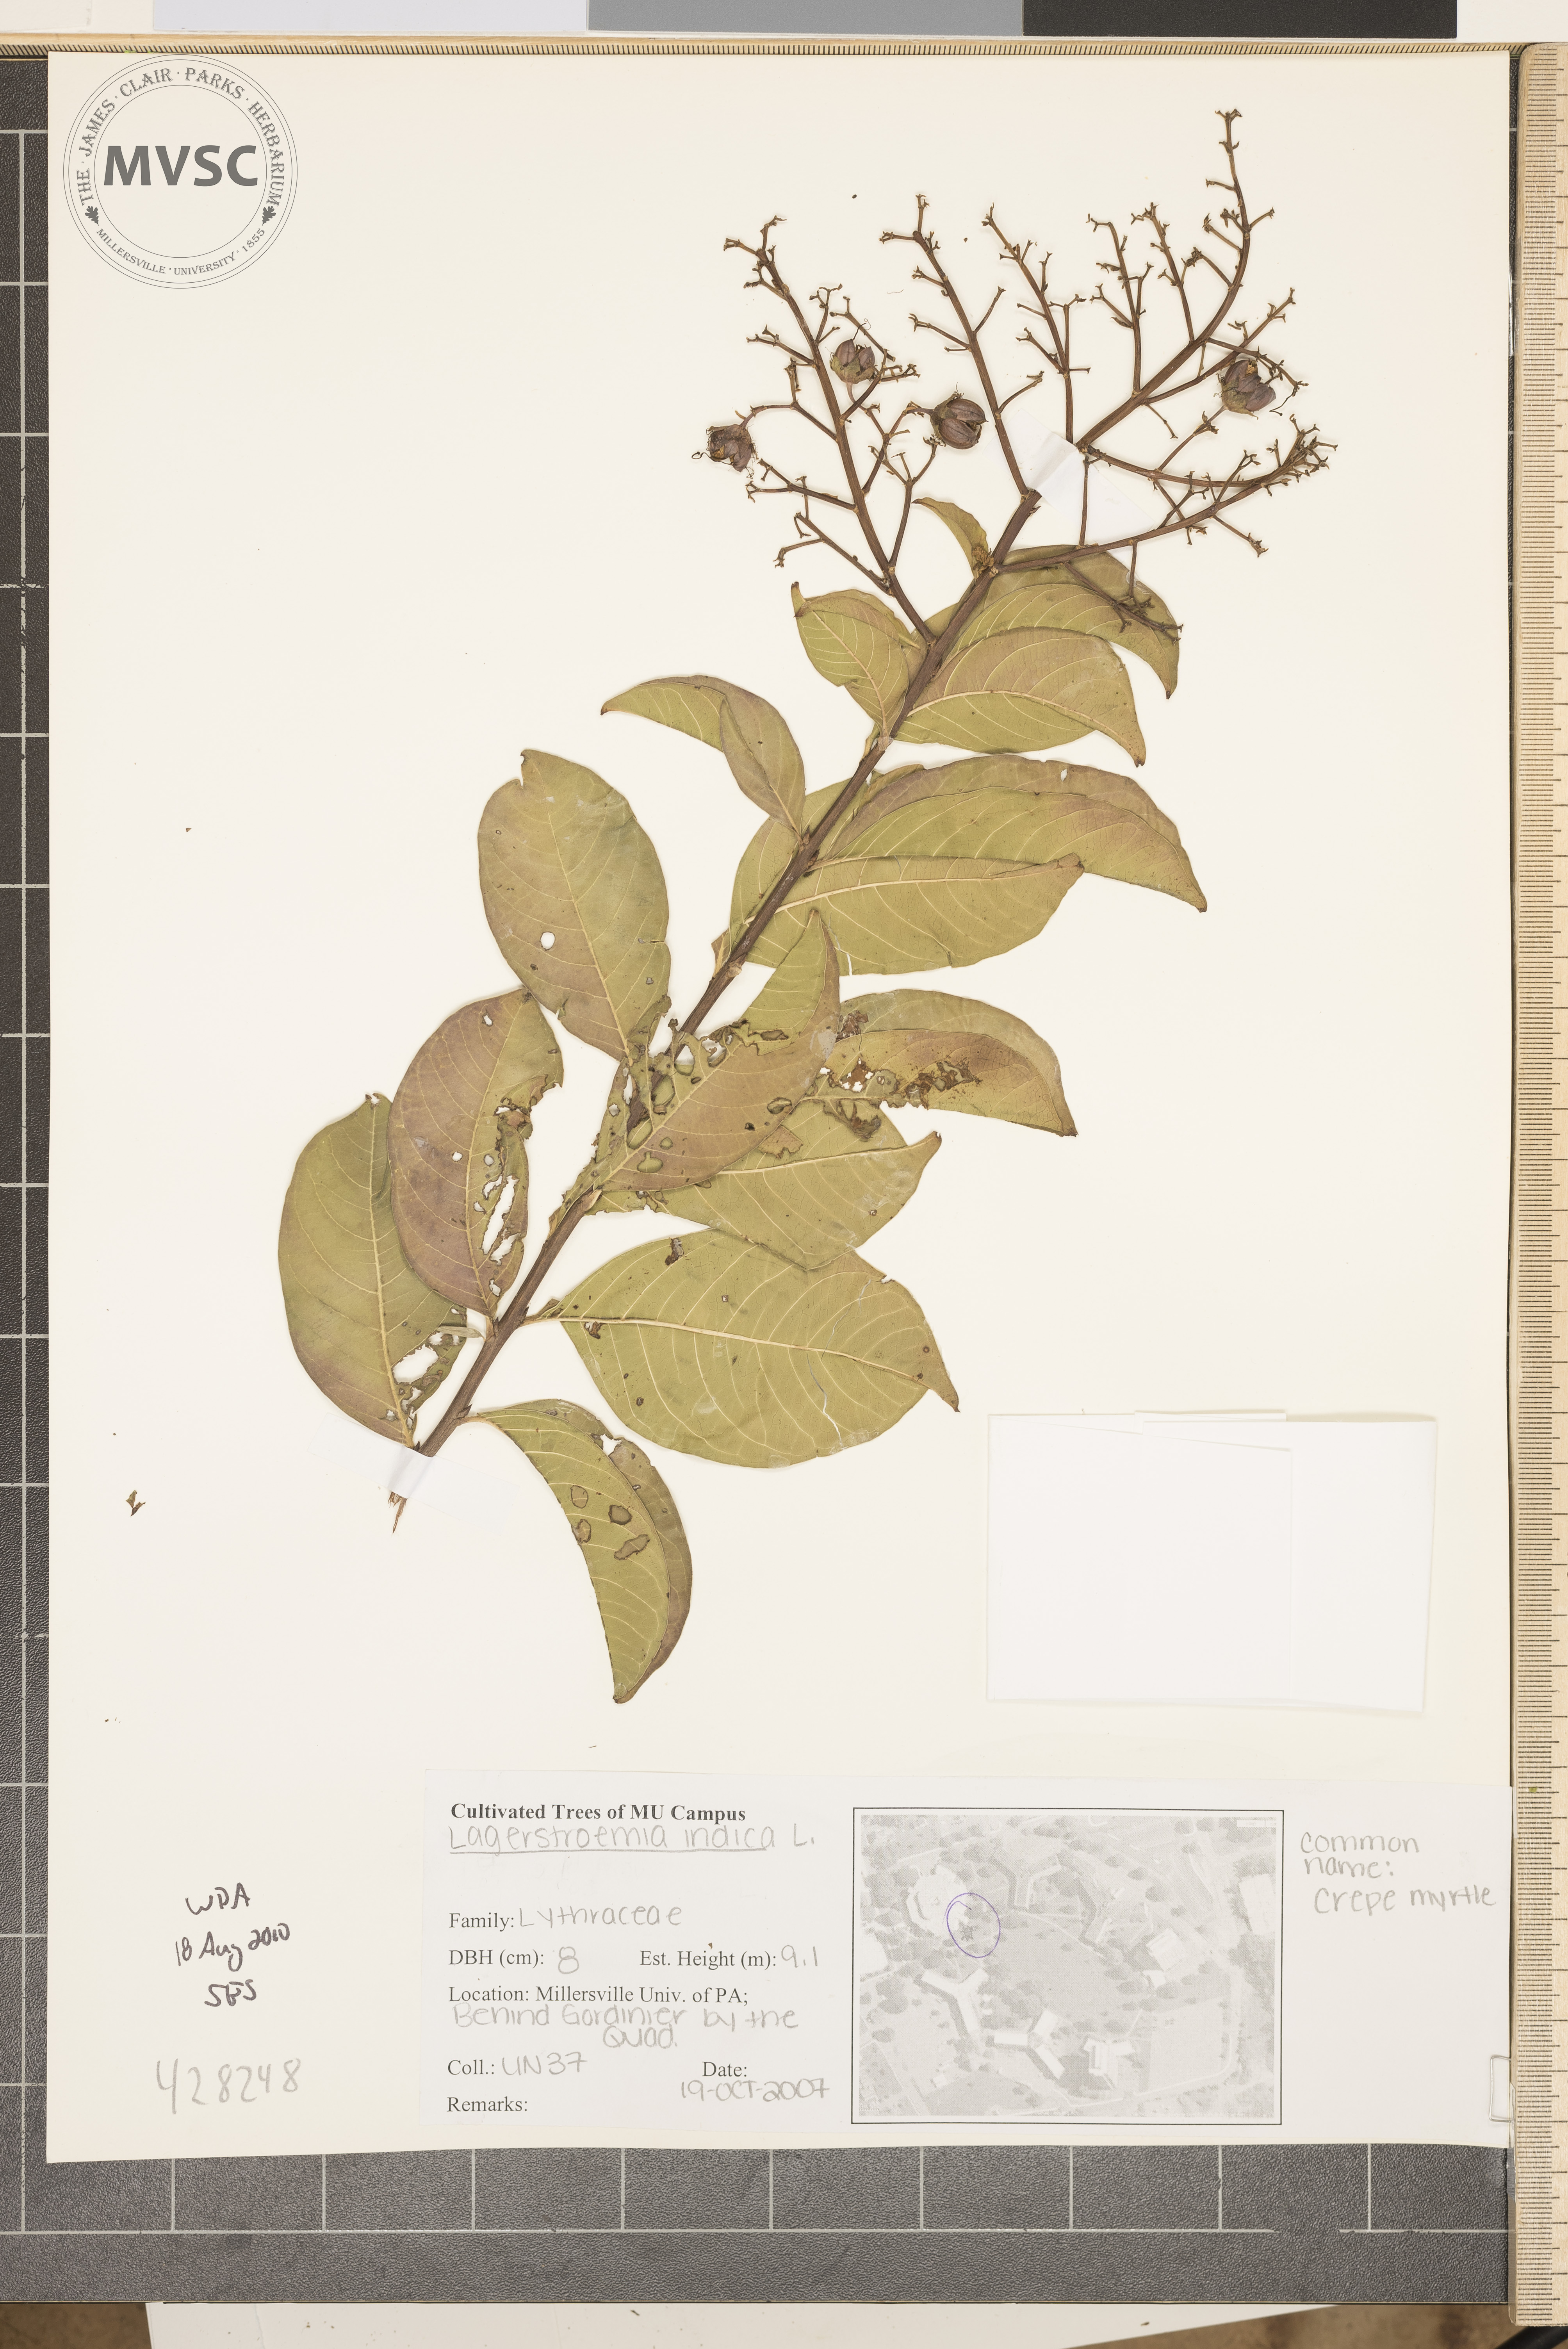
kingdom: Plantae
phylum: Tracheophyta
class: Magnoliopsida
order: Myrtales
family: Lythraceae
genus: Lagerstroemia
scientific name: Lagerstroemia indica
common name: Crapemyrtle
